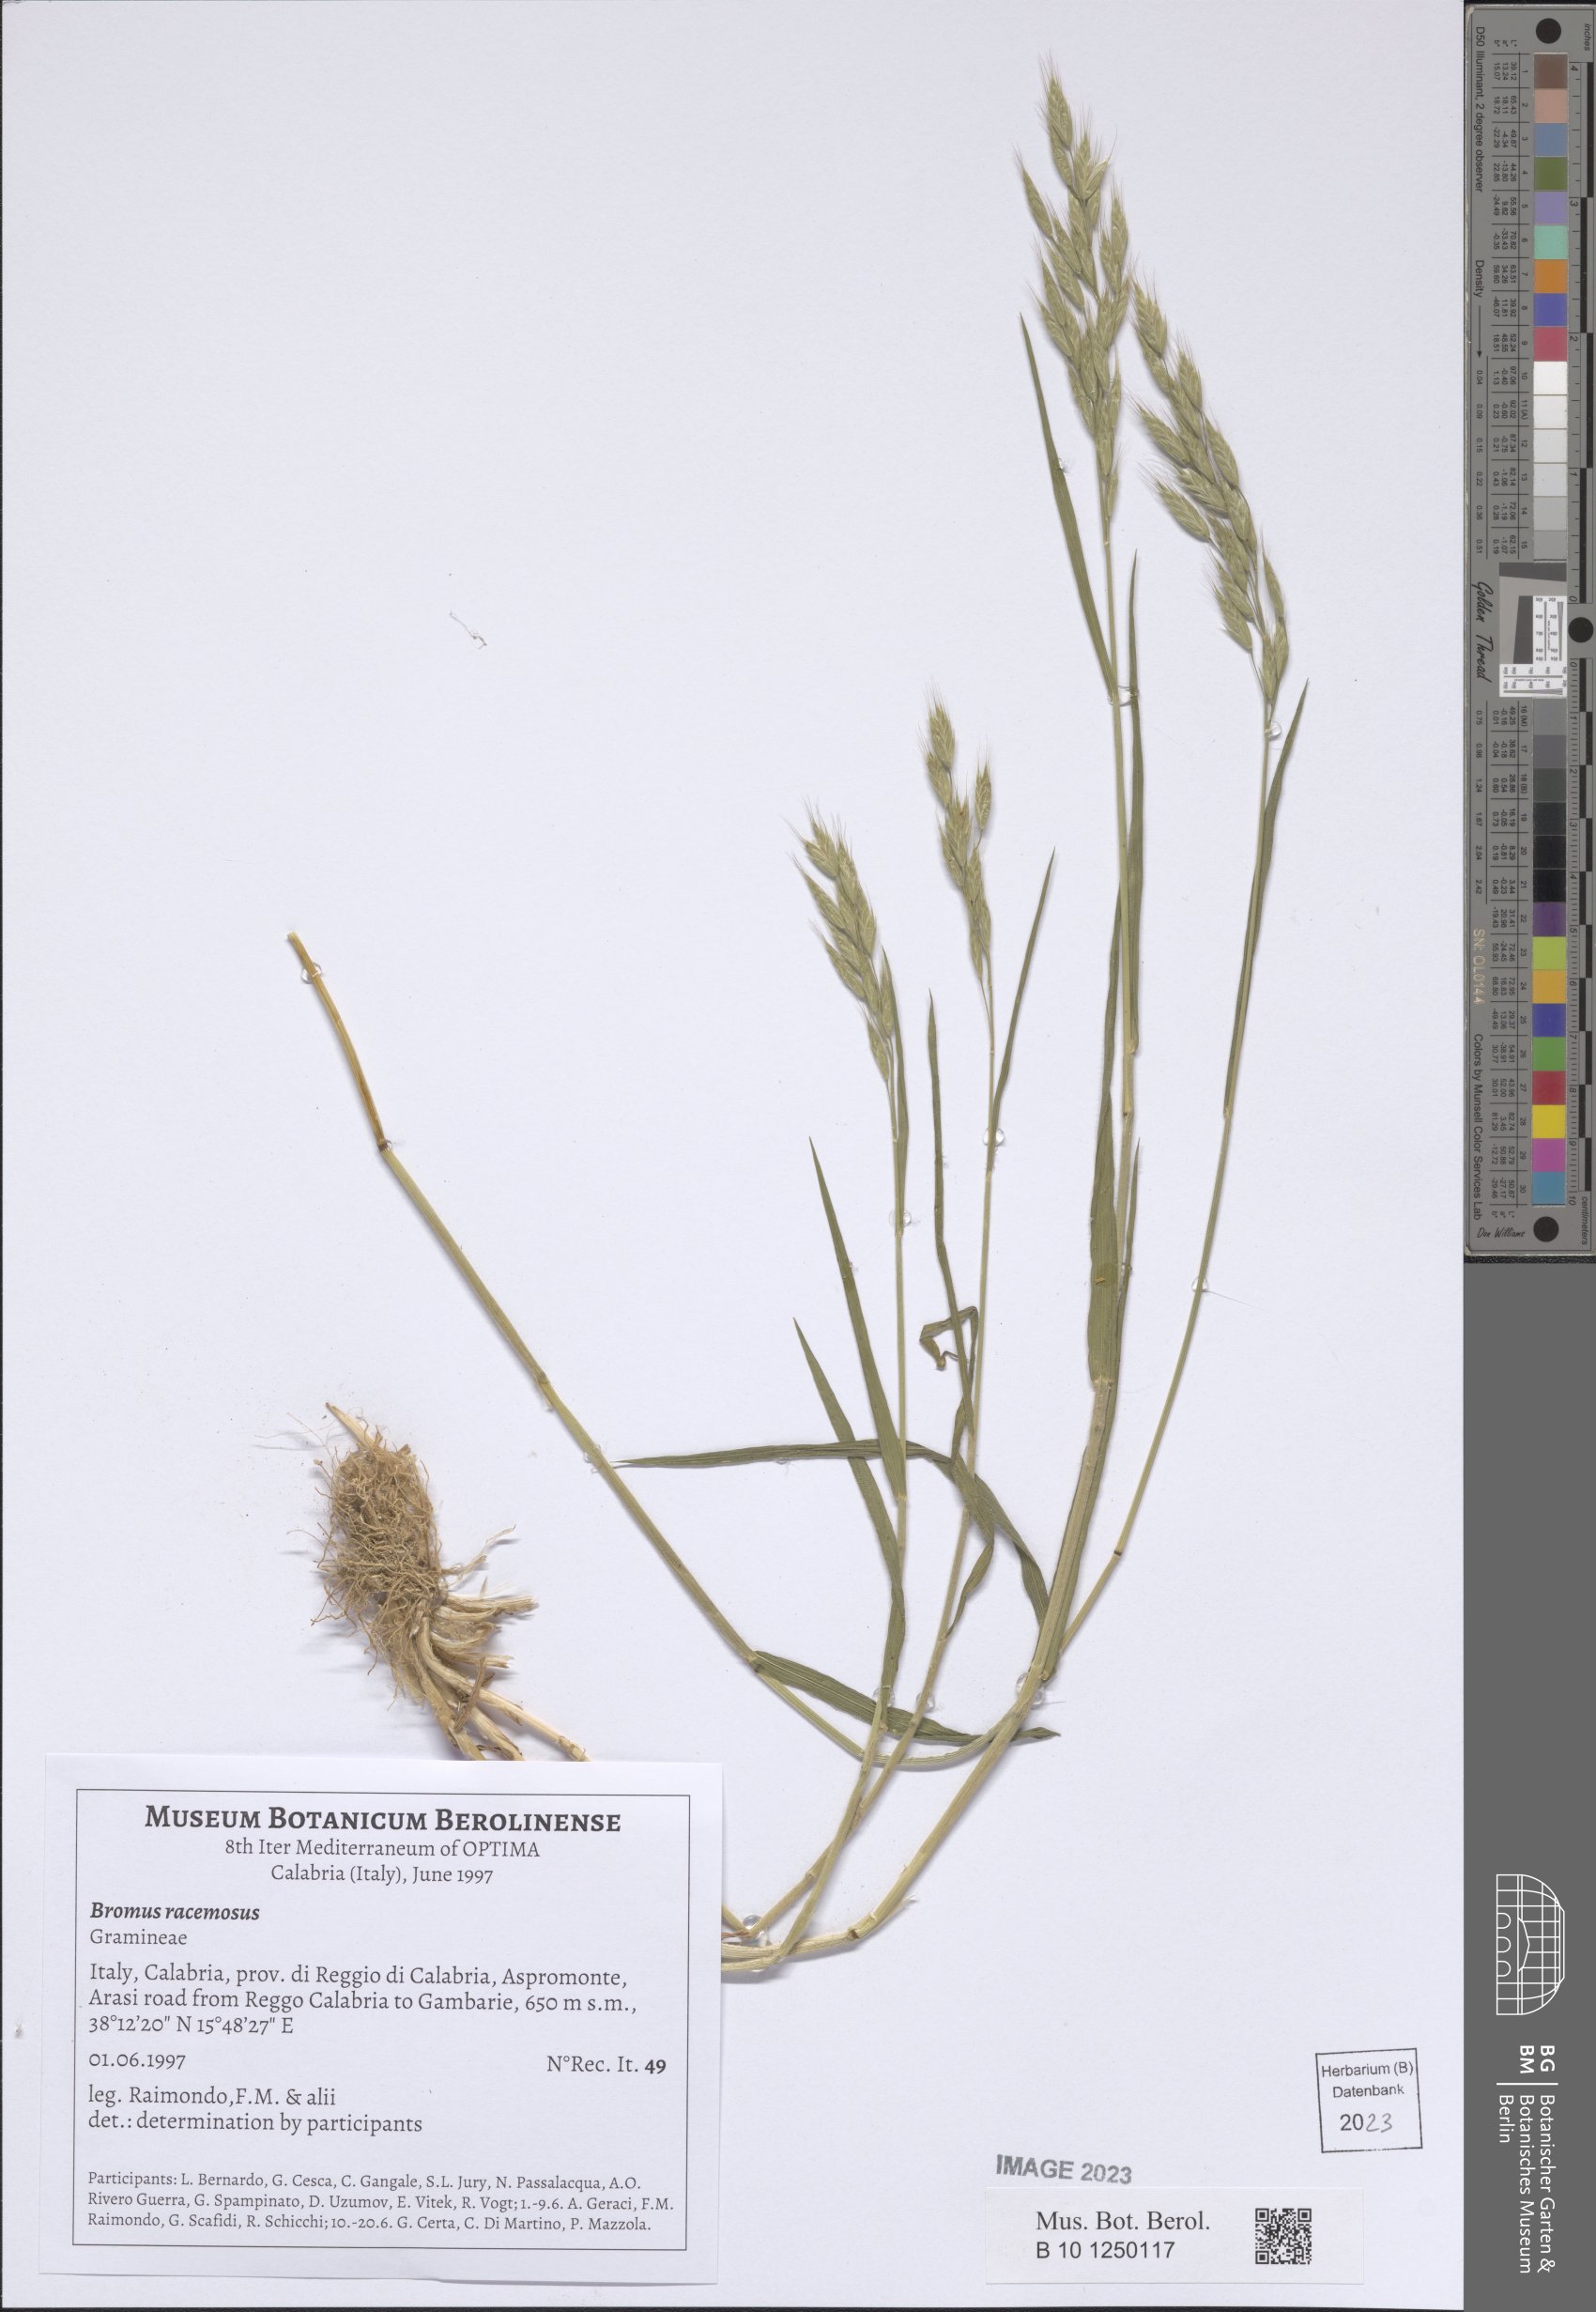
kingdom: Plantae
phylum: Tracheophyta
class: Liliopsida
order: Poales
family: Poaceae
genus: Bromus
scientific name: Bromus racemosus
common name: Bald brome
